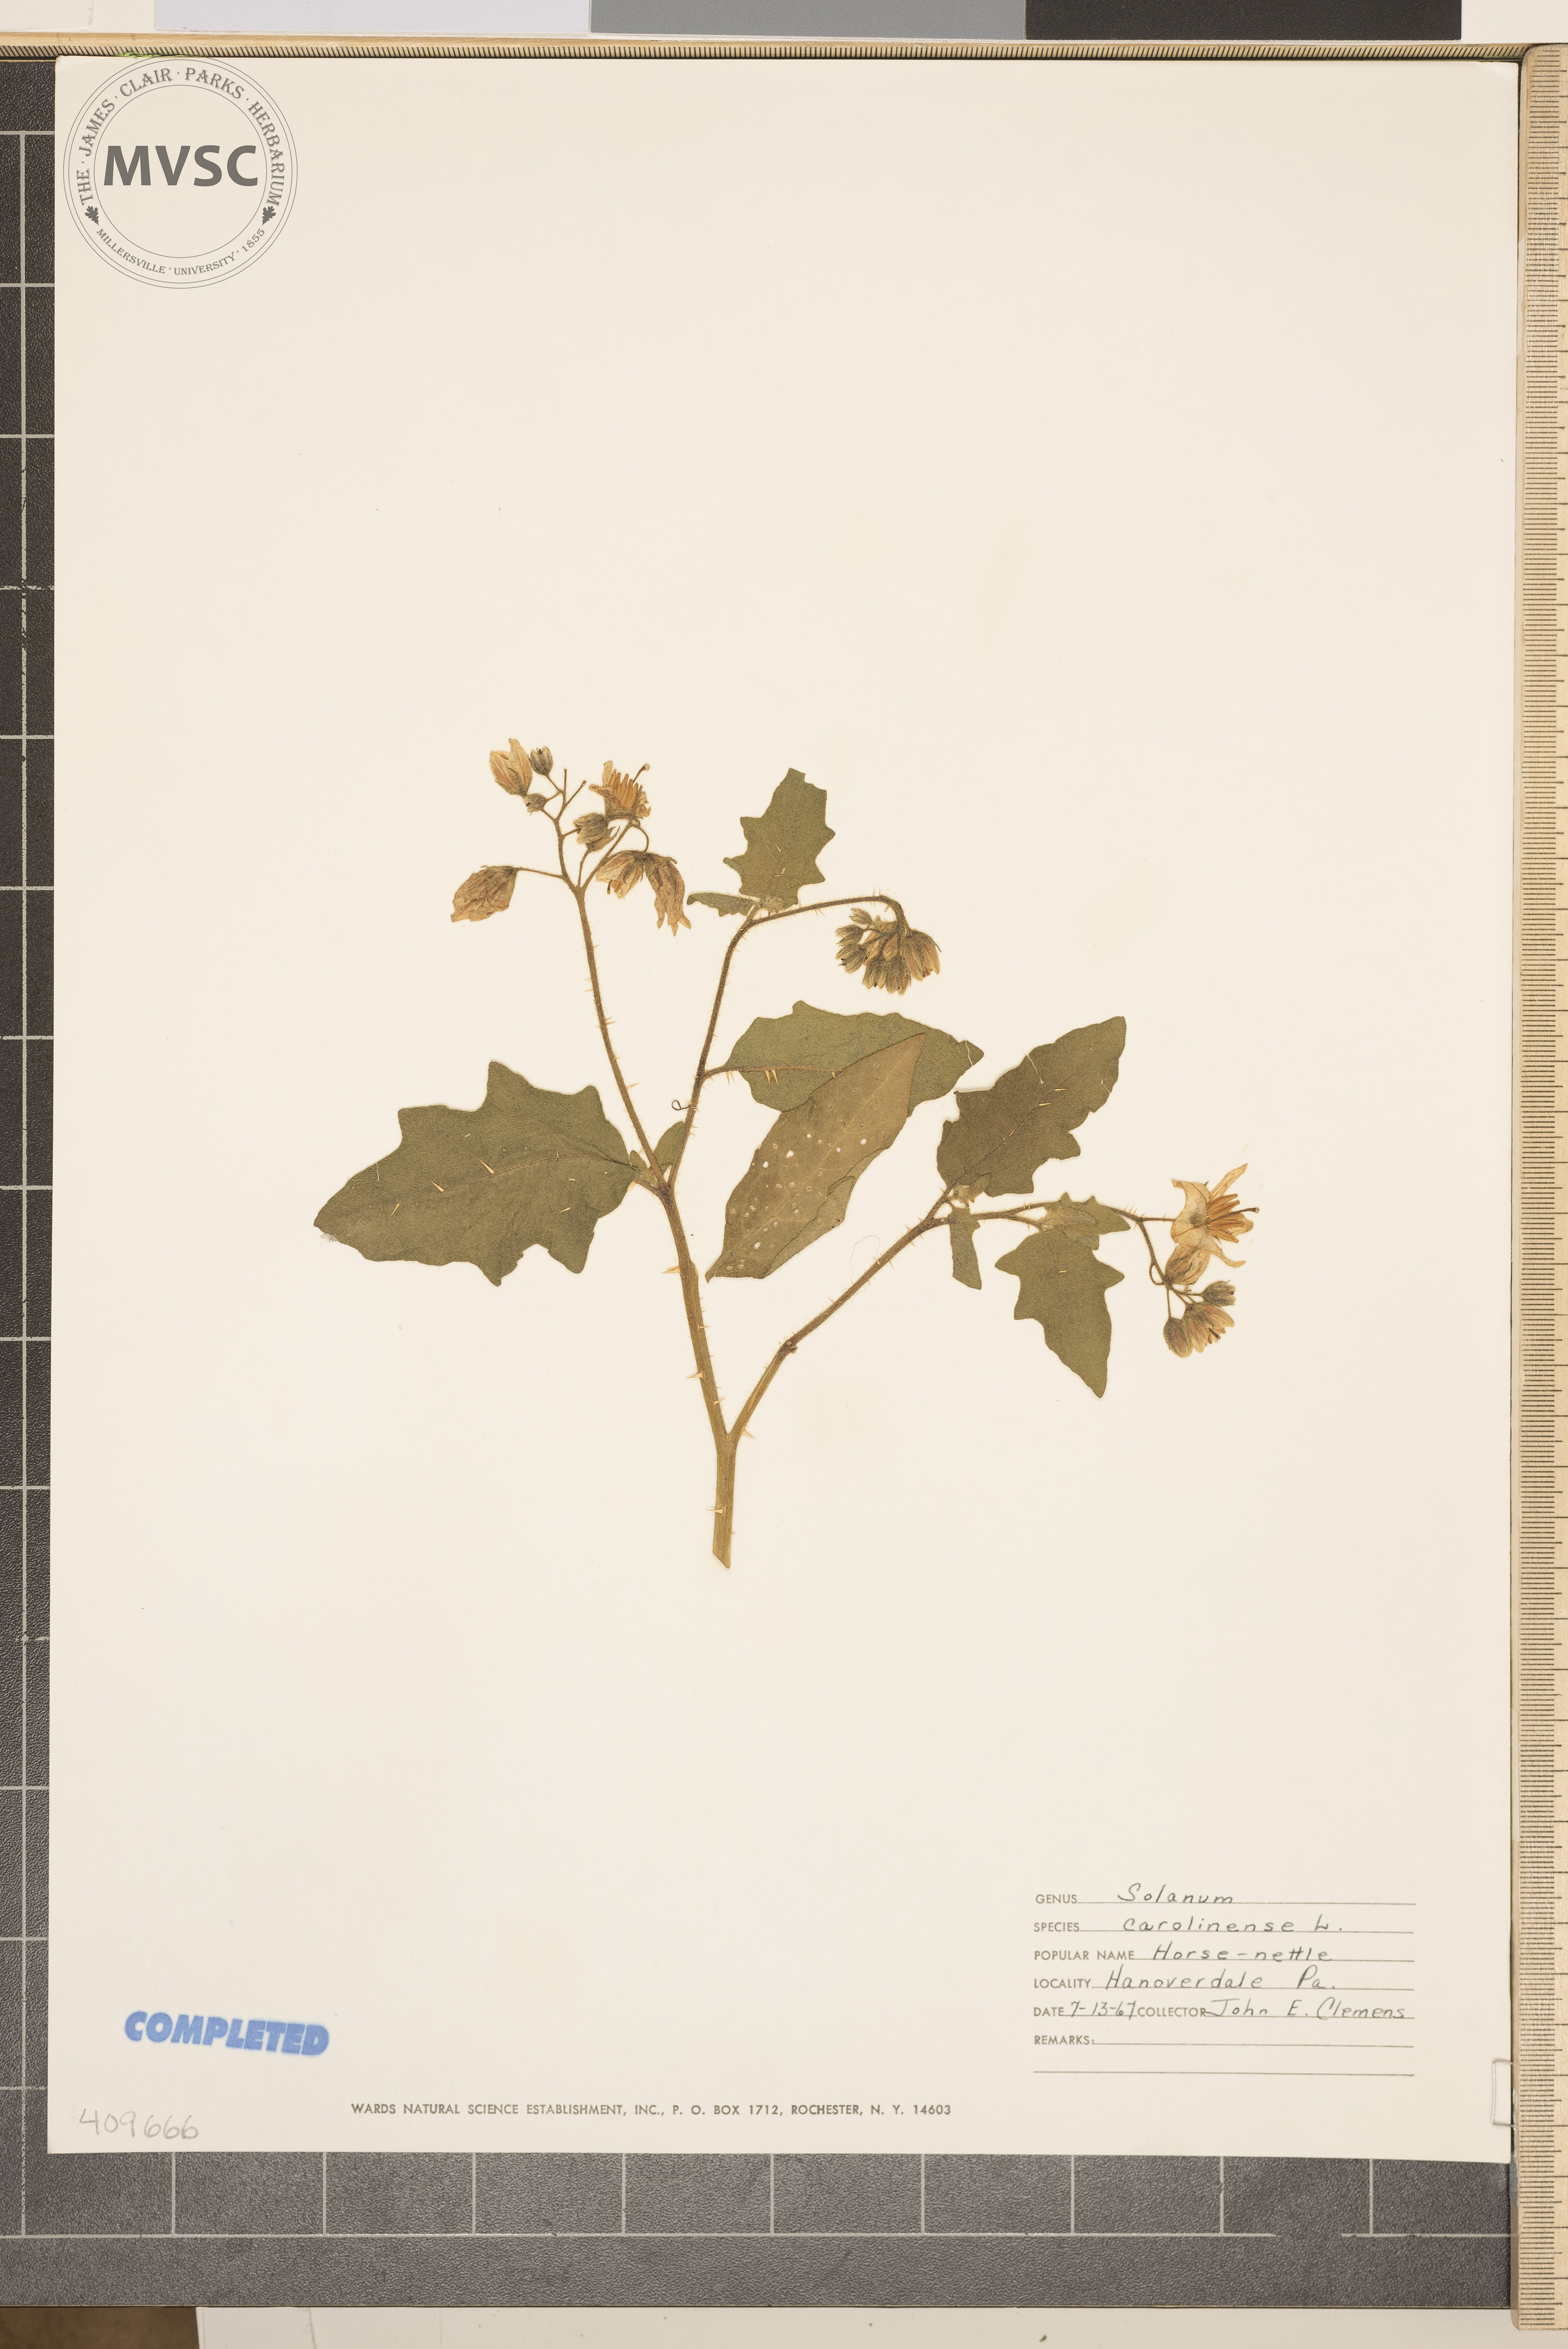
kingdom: Plantae
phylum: Tracheophyta
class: Magnoliopsida
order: Solanales
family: Solanaceae
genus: Solanum
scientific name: Solanum carolinense
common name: Horse-nettle
